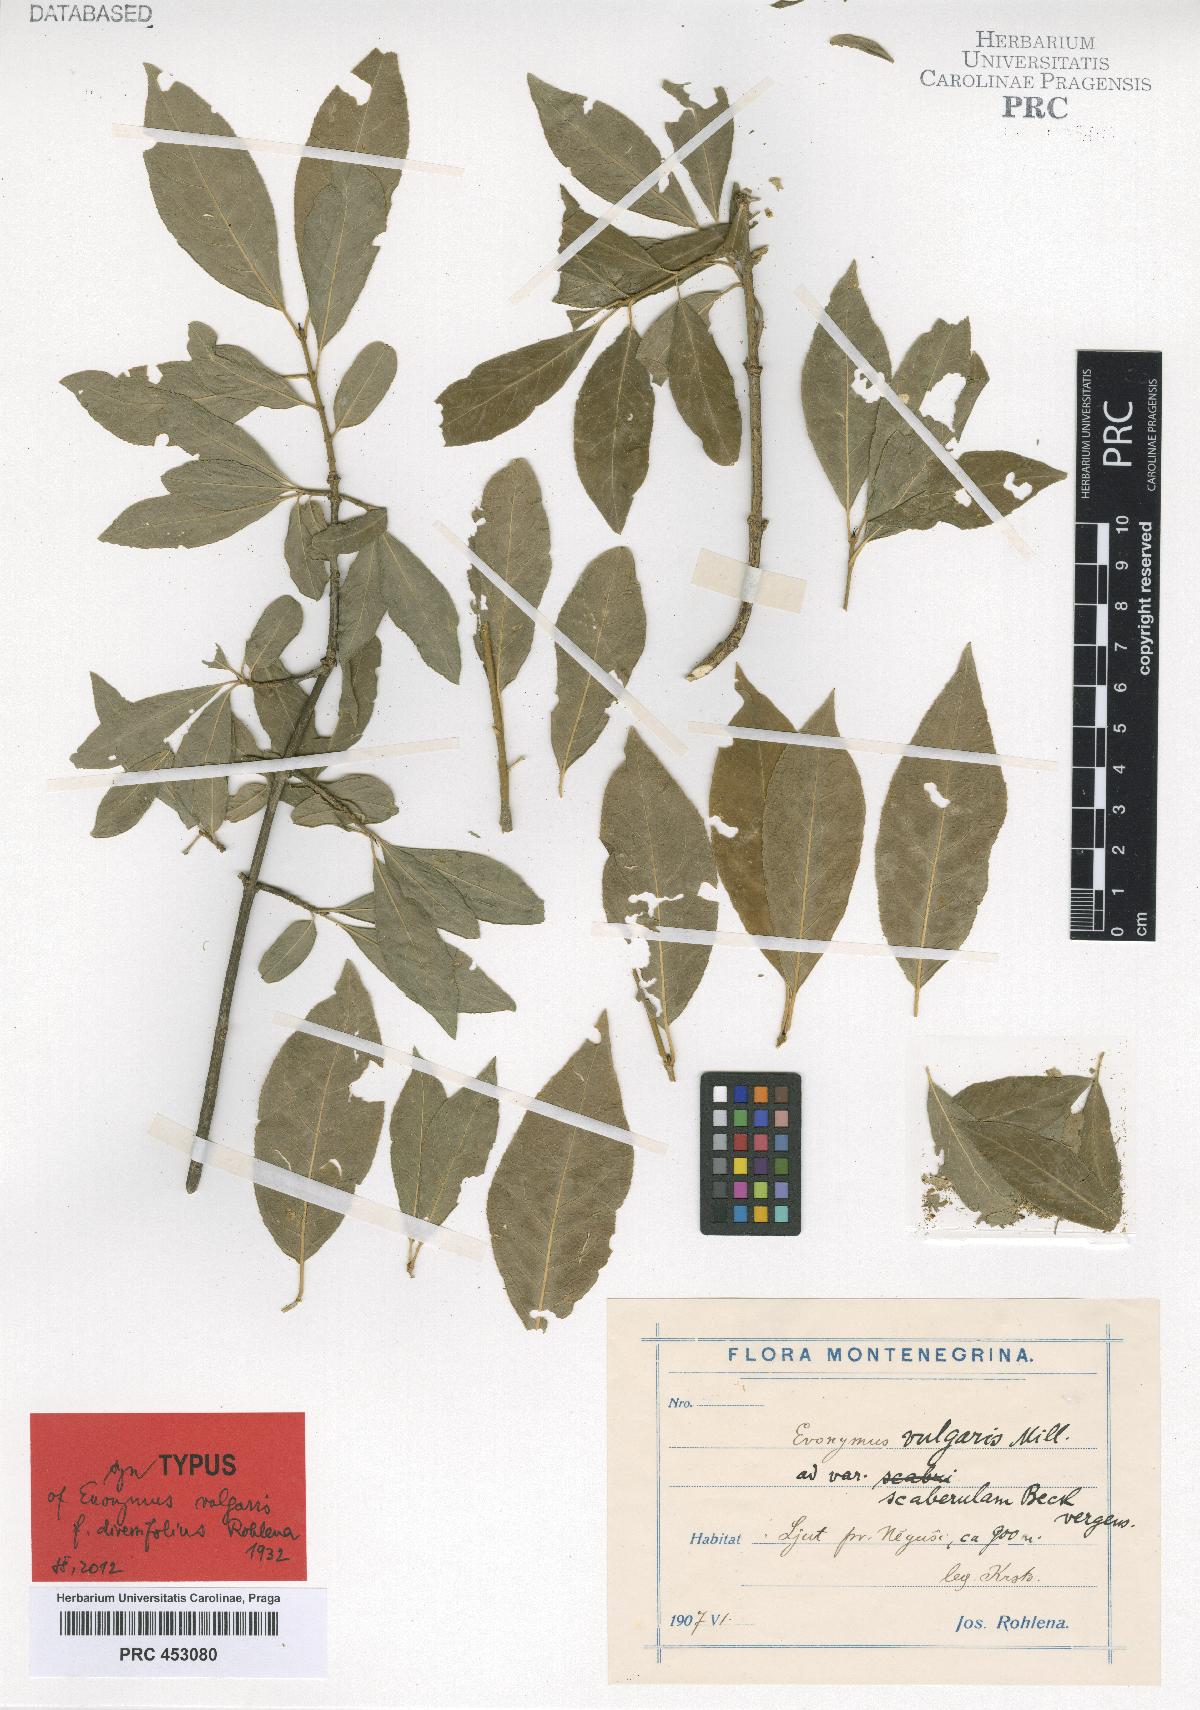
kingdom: Plantae
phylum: Tracheophyta
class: Magnoliopsida
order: Celastrales
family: Celastraceae
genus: Euonymus
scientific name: Euonymus europaeus
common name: Spindle
